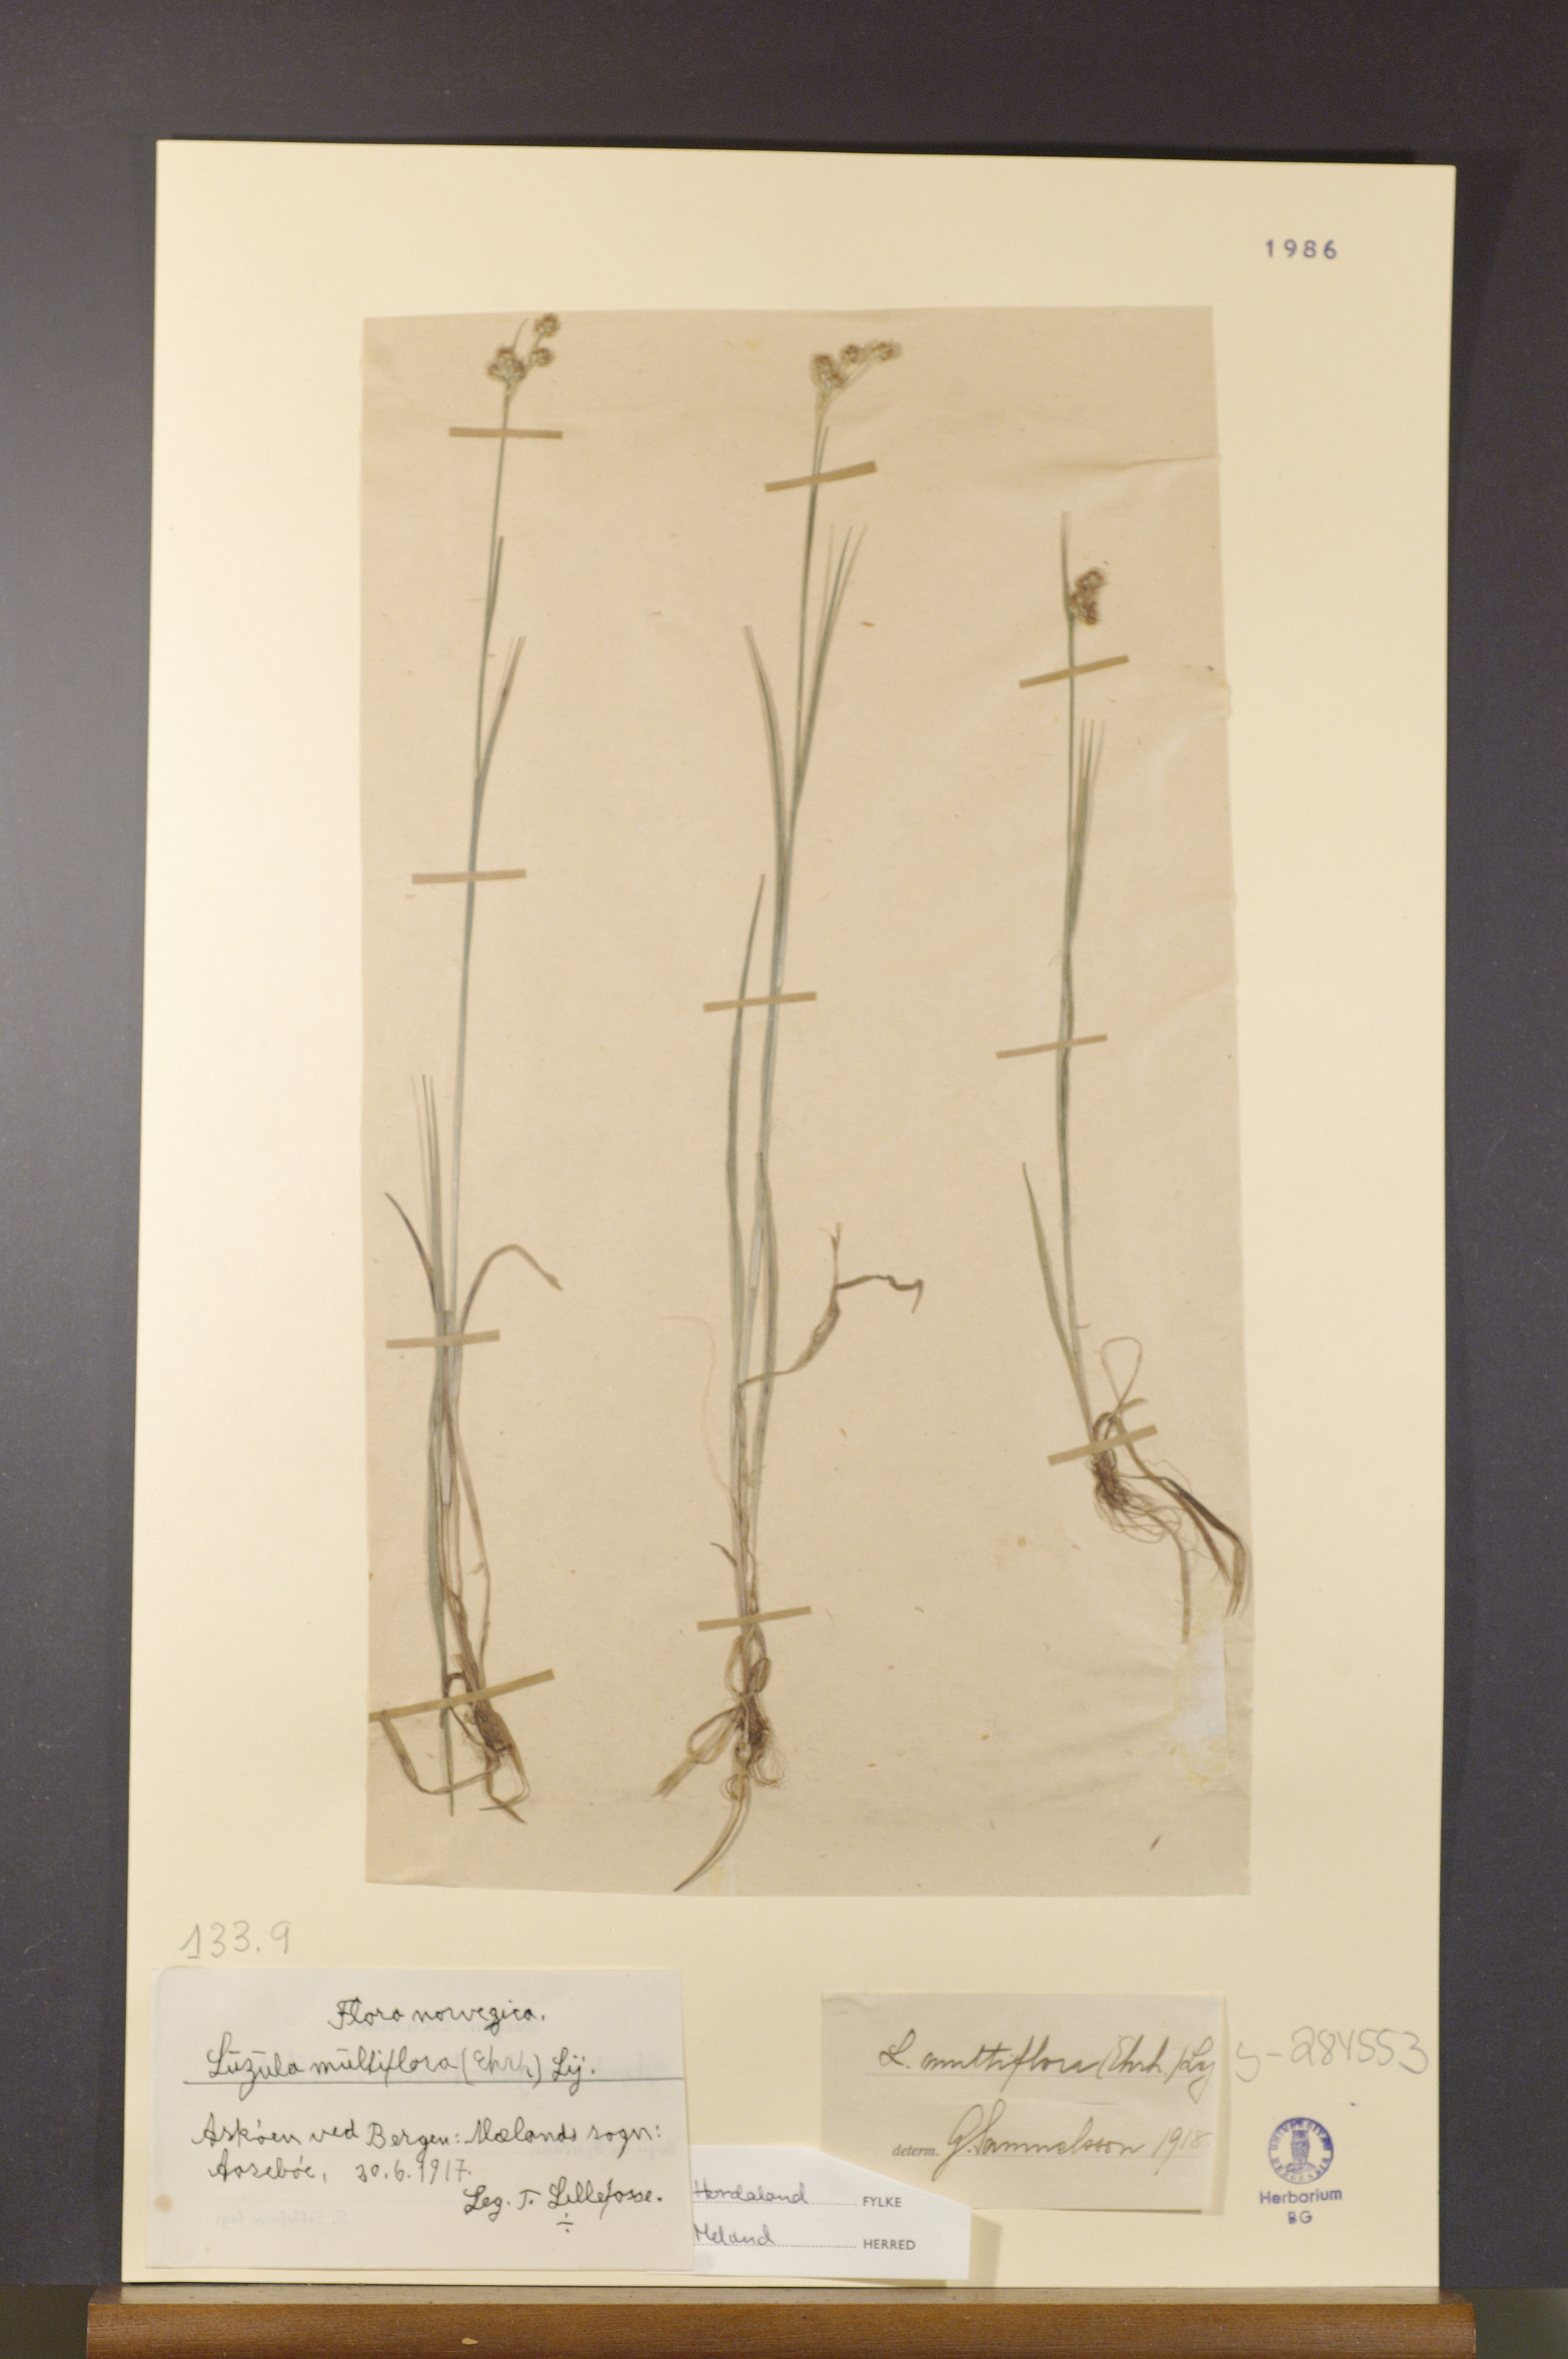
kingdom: Plantae
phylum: Tracheophyta
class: Liliopsida
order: Poales
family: Juncaceae
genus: Luzula
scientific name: Luzula multiflora
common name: Heath wood-rush
